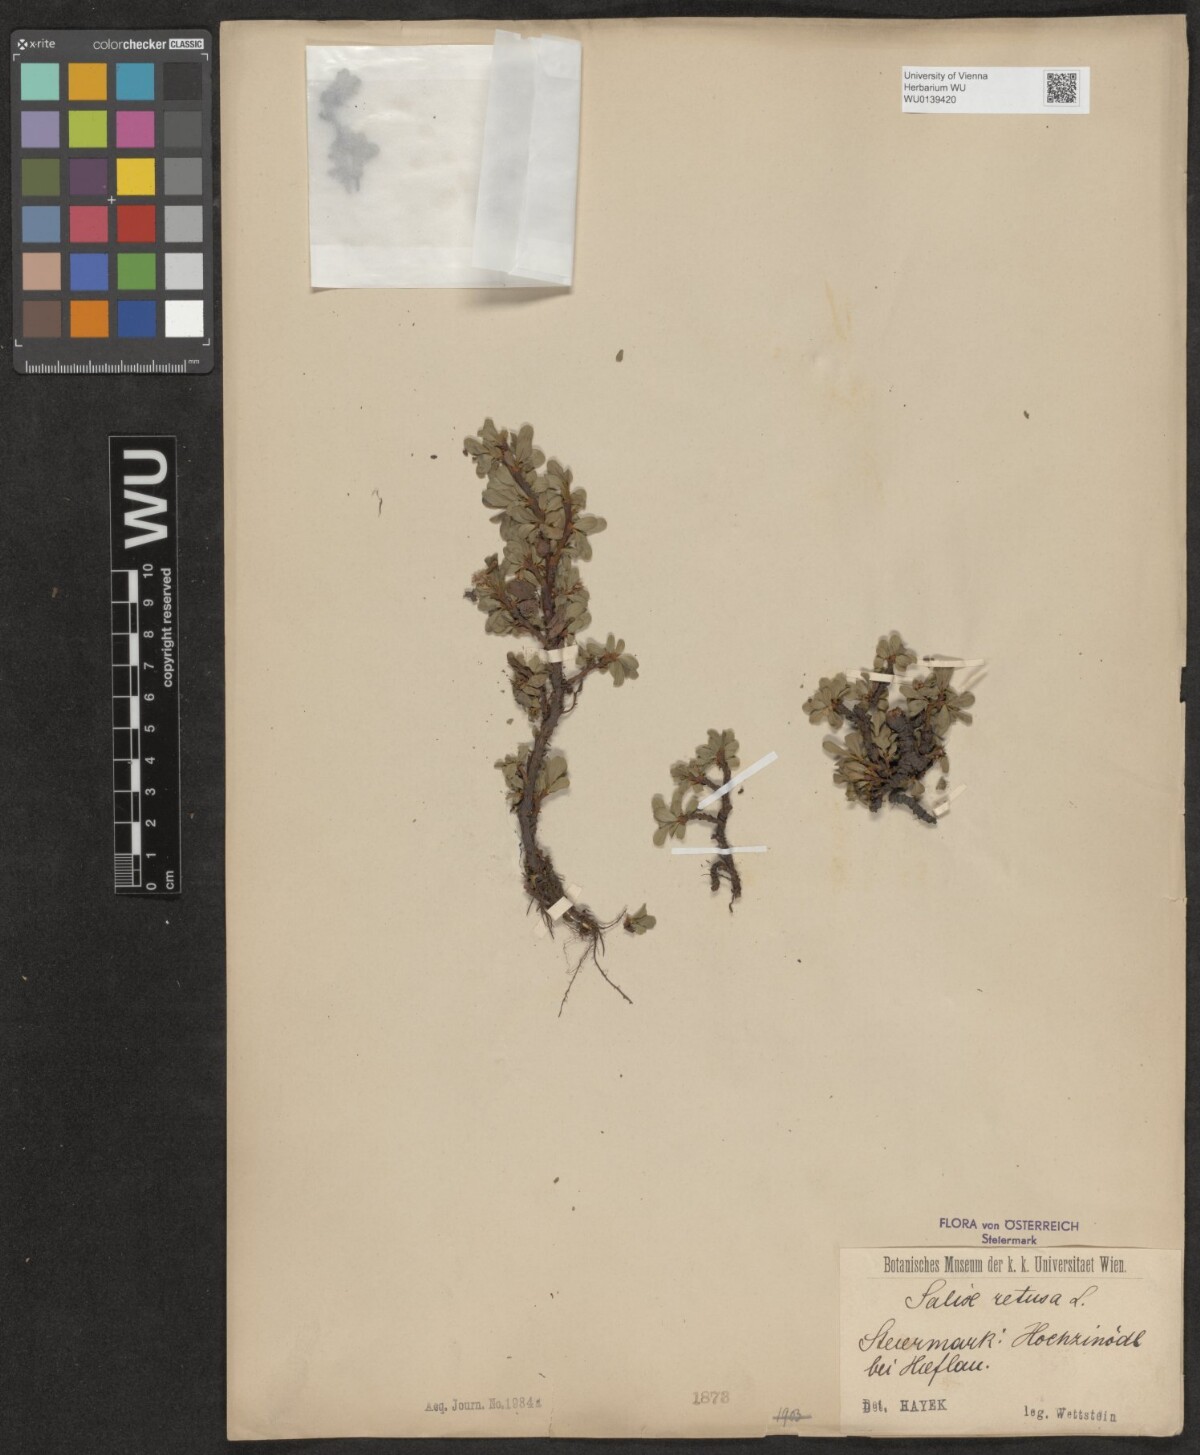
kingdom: Plantae
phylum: Tracheophyta
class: Magnoliopsida
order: Malpighiales
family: Salicaceae
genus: Salix
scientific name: Salix retusa
